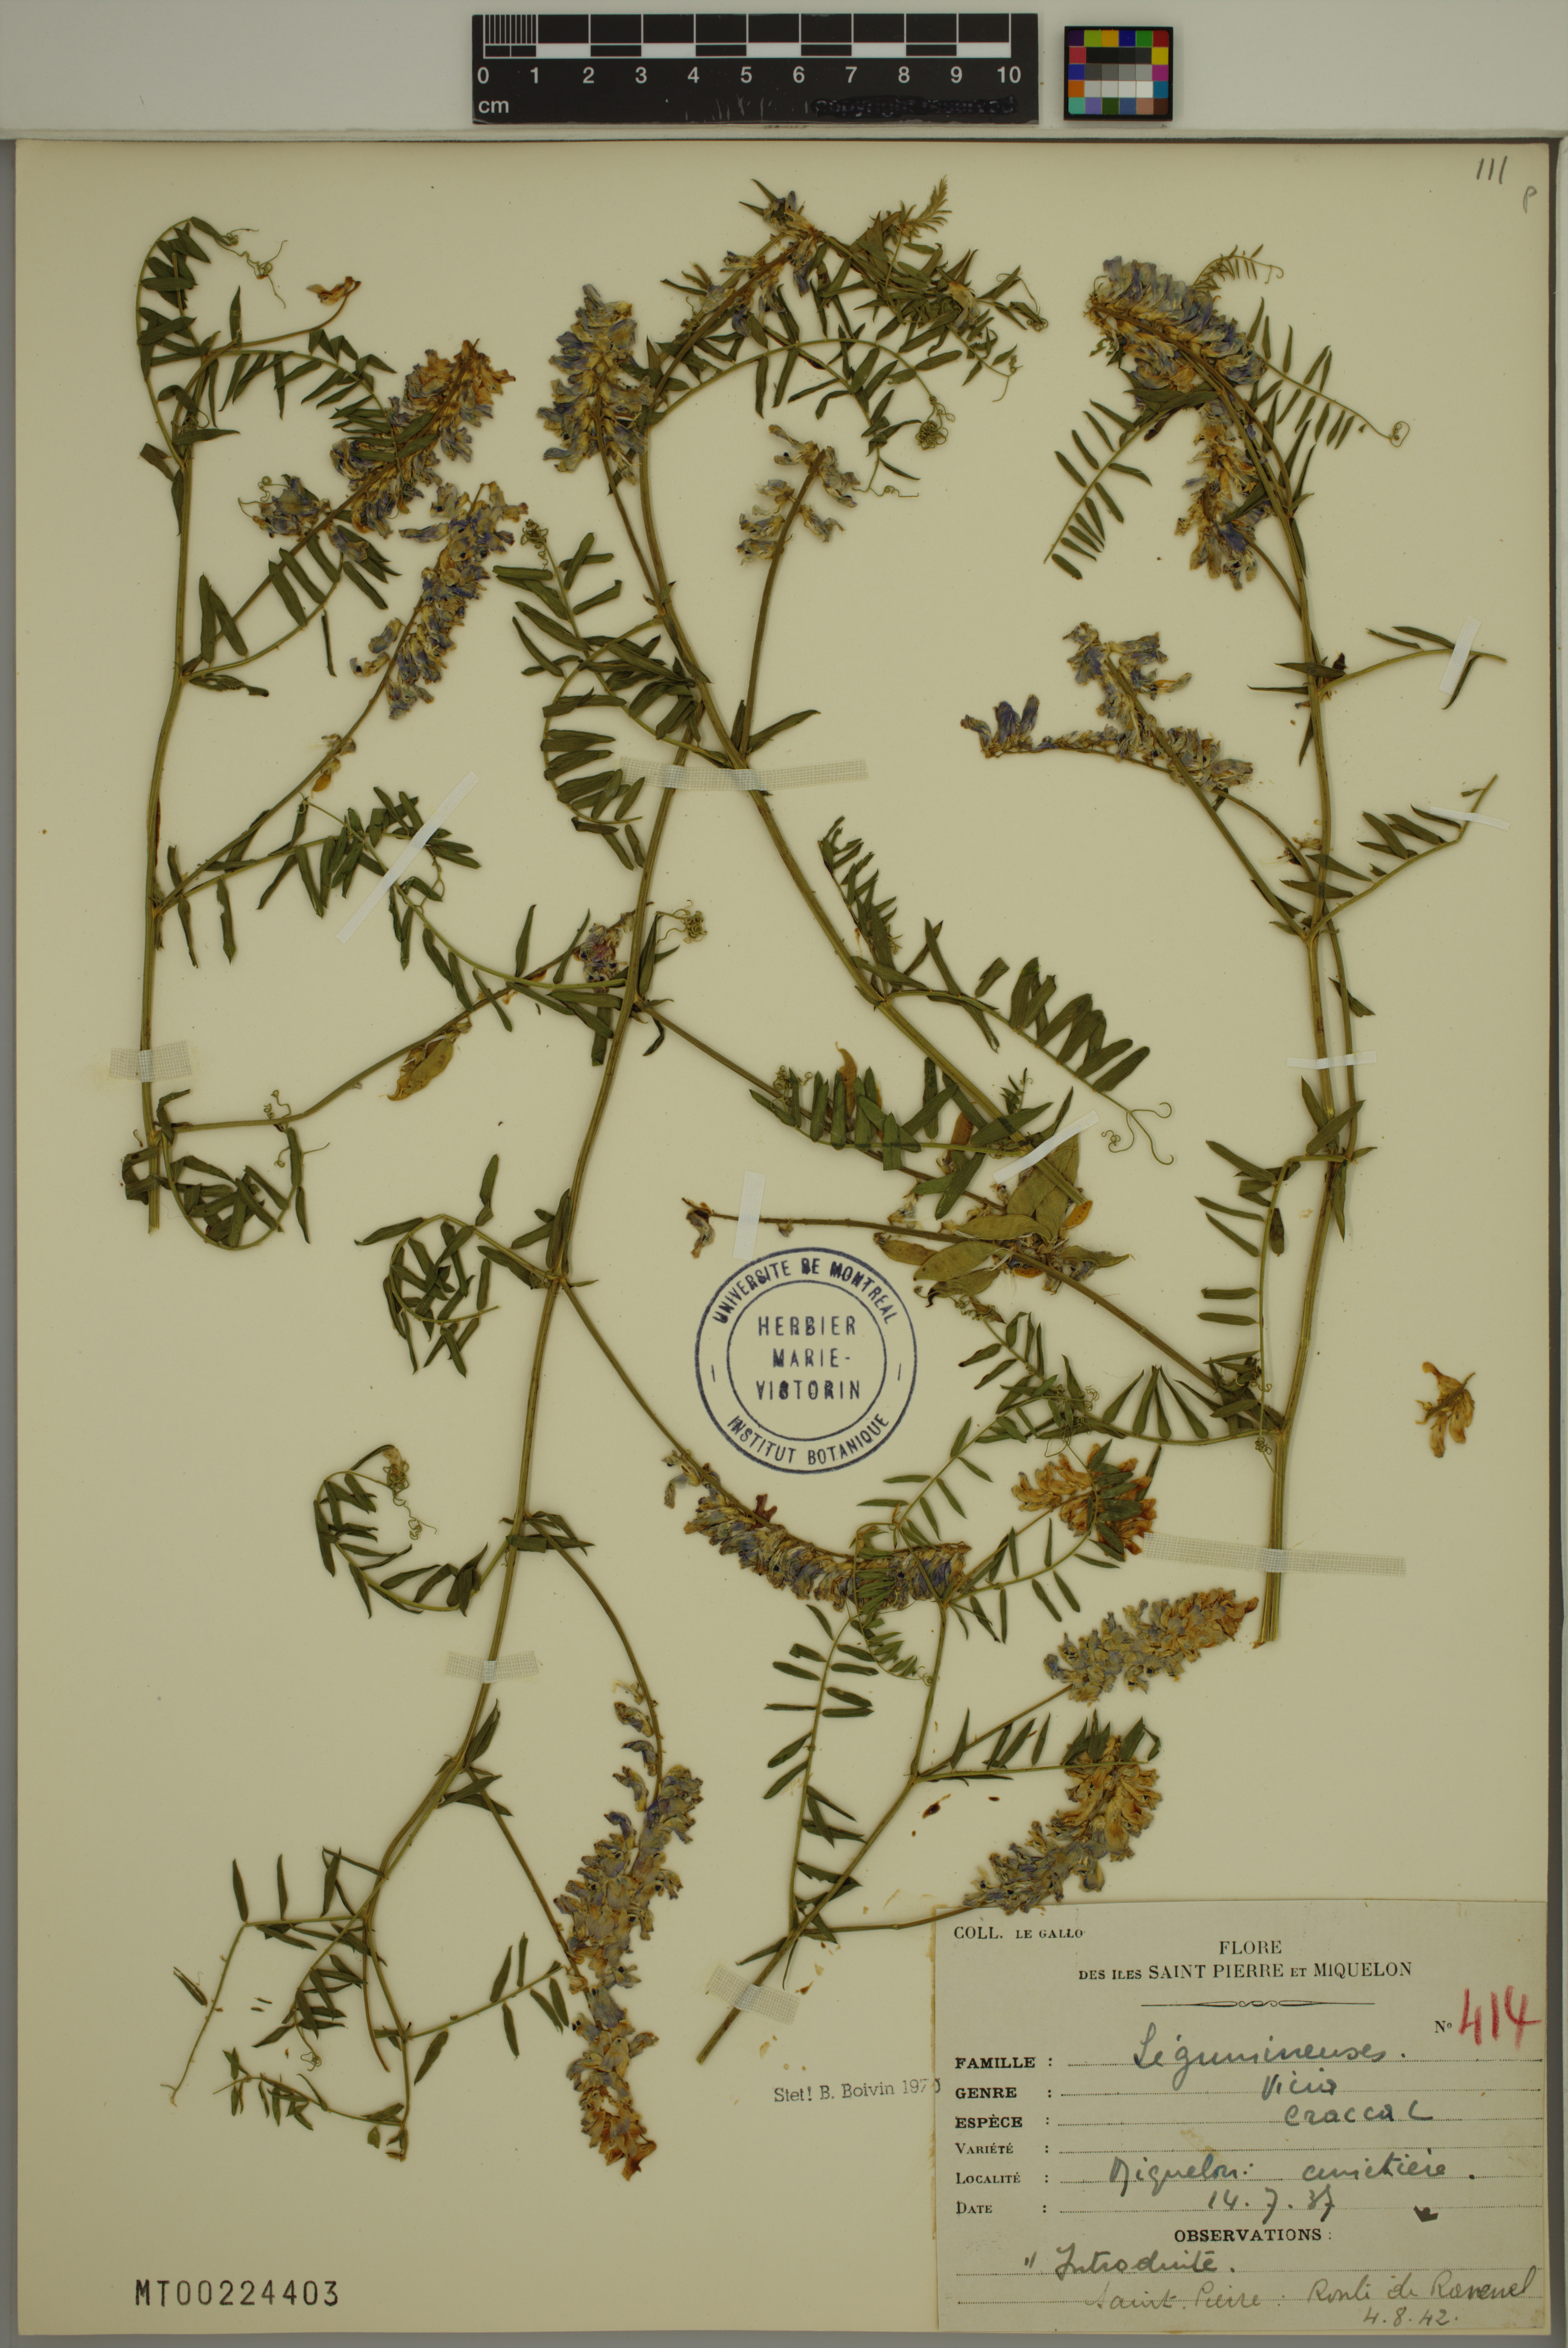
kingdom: Plantae
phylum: Tracheophyta
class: Magnoliopsida
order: Fabales
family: Fabaceae
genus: Vicia
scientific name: Vicia cracca
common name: Bird vetch
